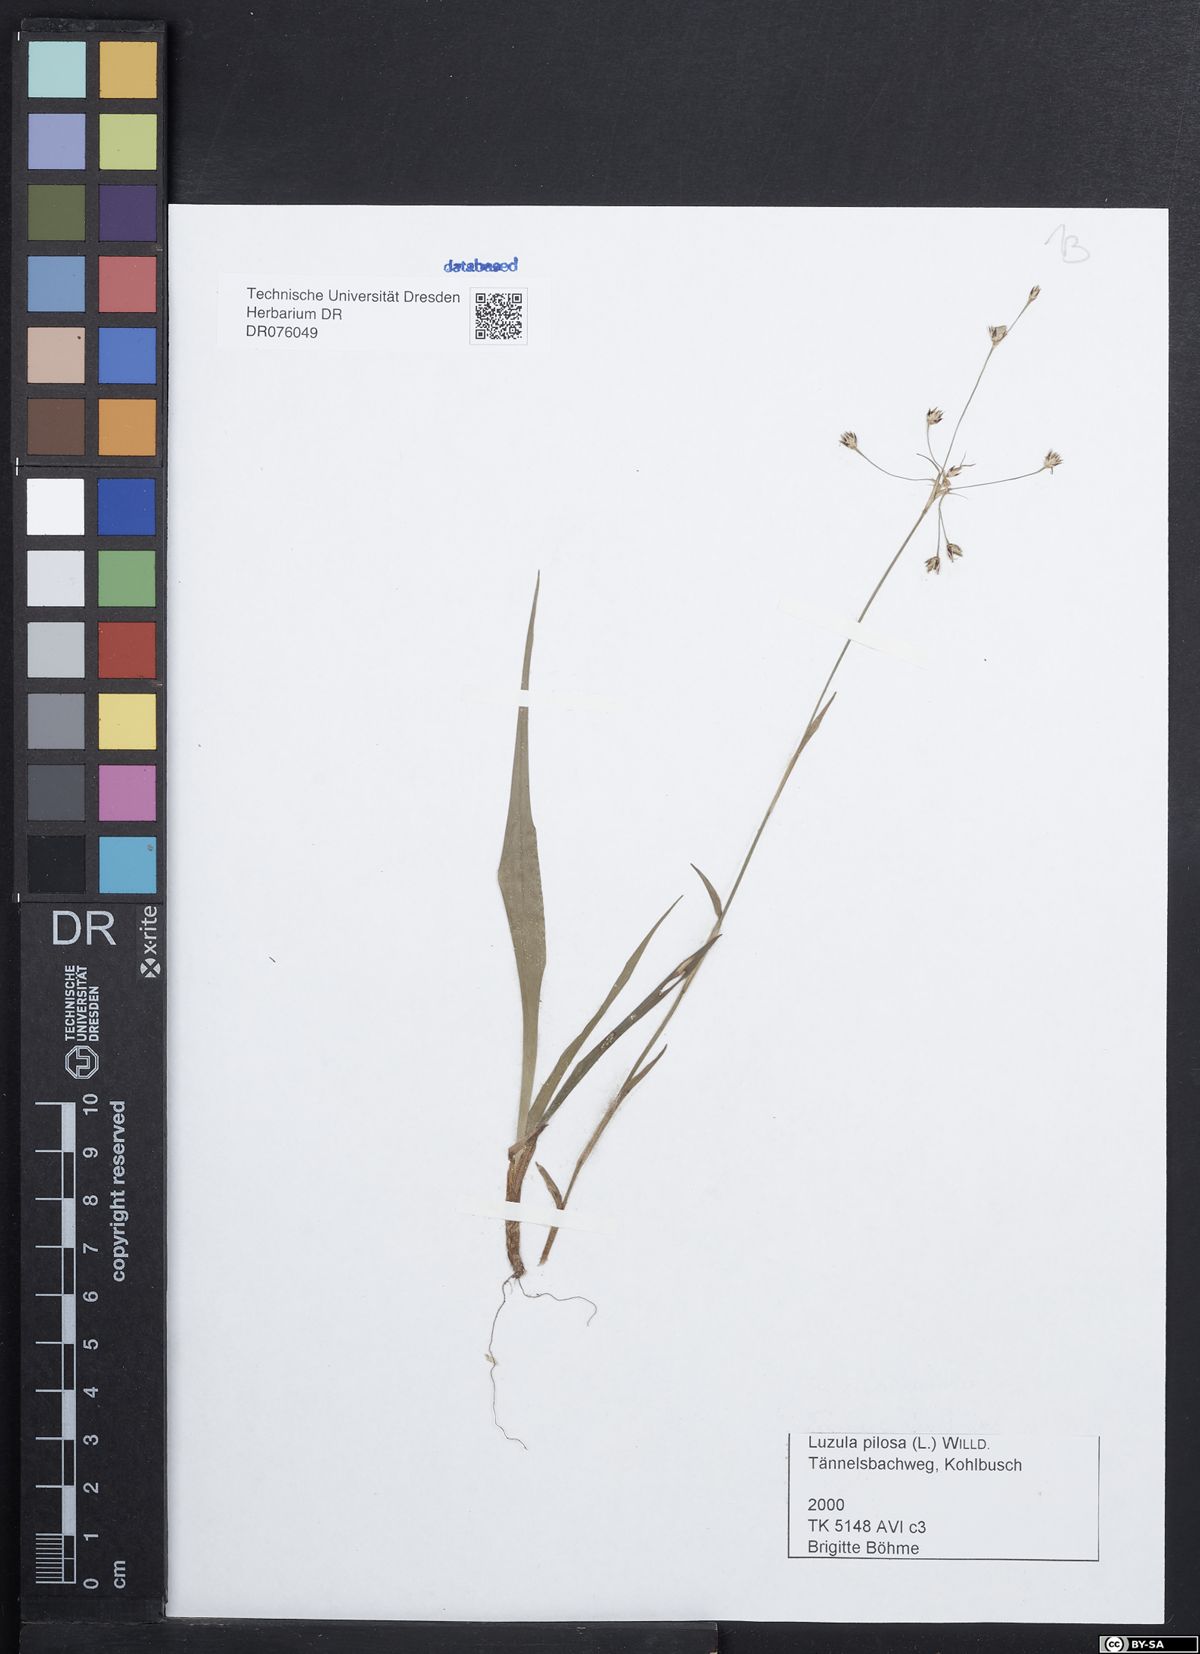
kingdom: Plantae
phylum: Tracheophyta
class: Liliopsida
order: Poales
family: Juncaceae
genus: Luzula
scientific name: Luzula pilosa
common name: Hairy wood-rush
